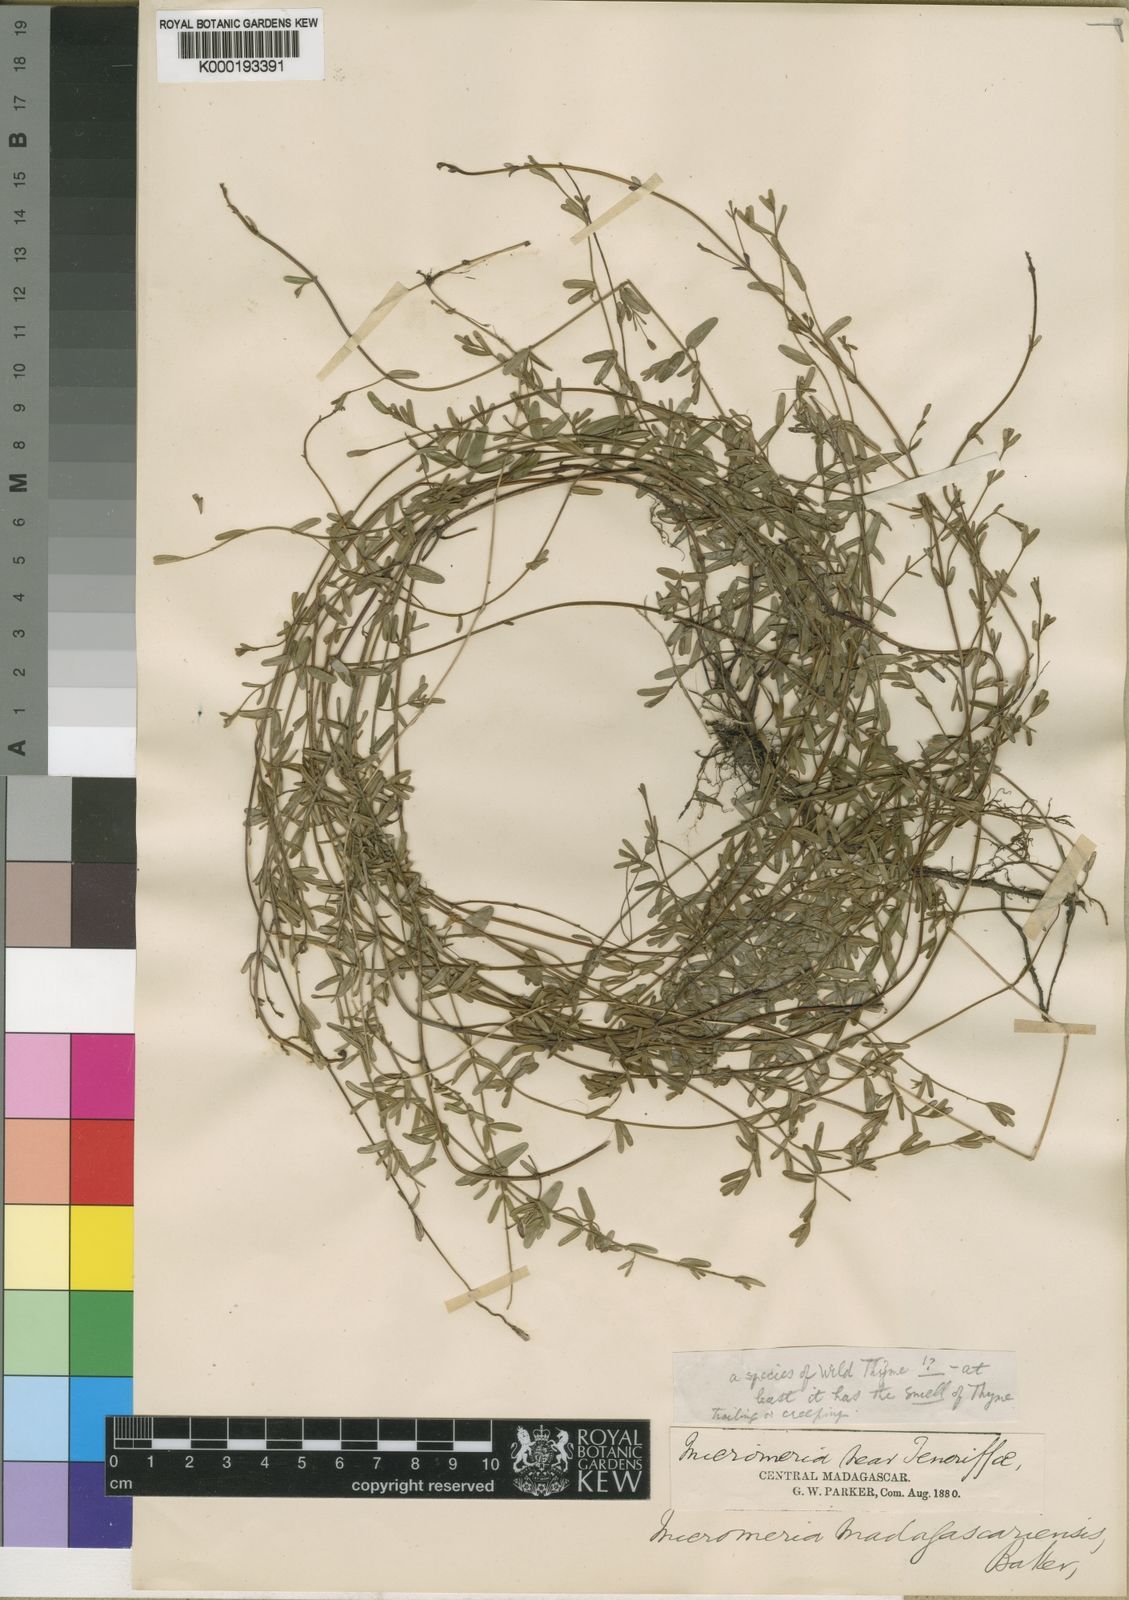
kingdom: Plantae
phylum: Tracheophyta
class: Magnoliopsida
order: Lamiales
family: Lamiaceae
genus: Micromeria
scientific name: Micromeria madagascariensis
